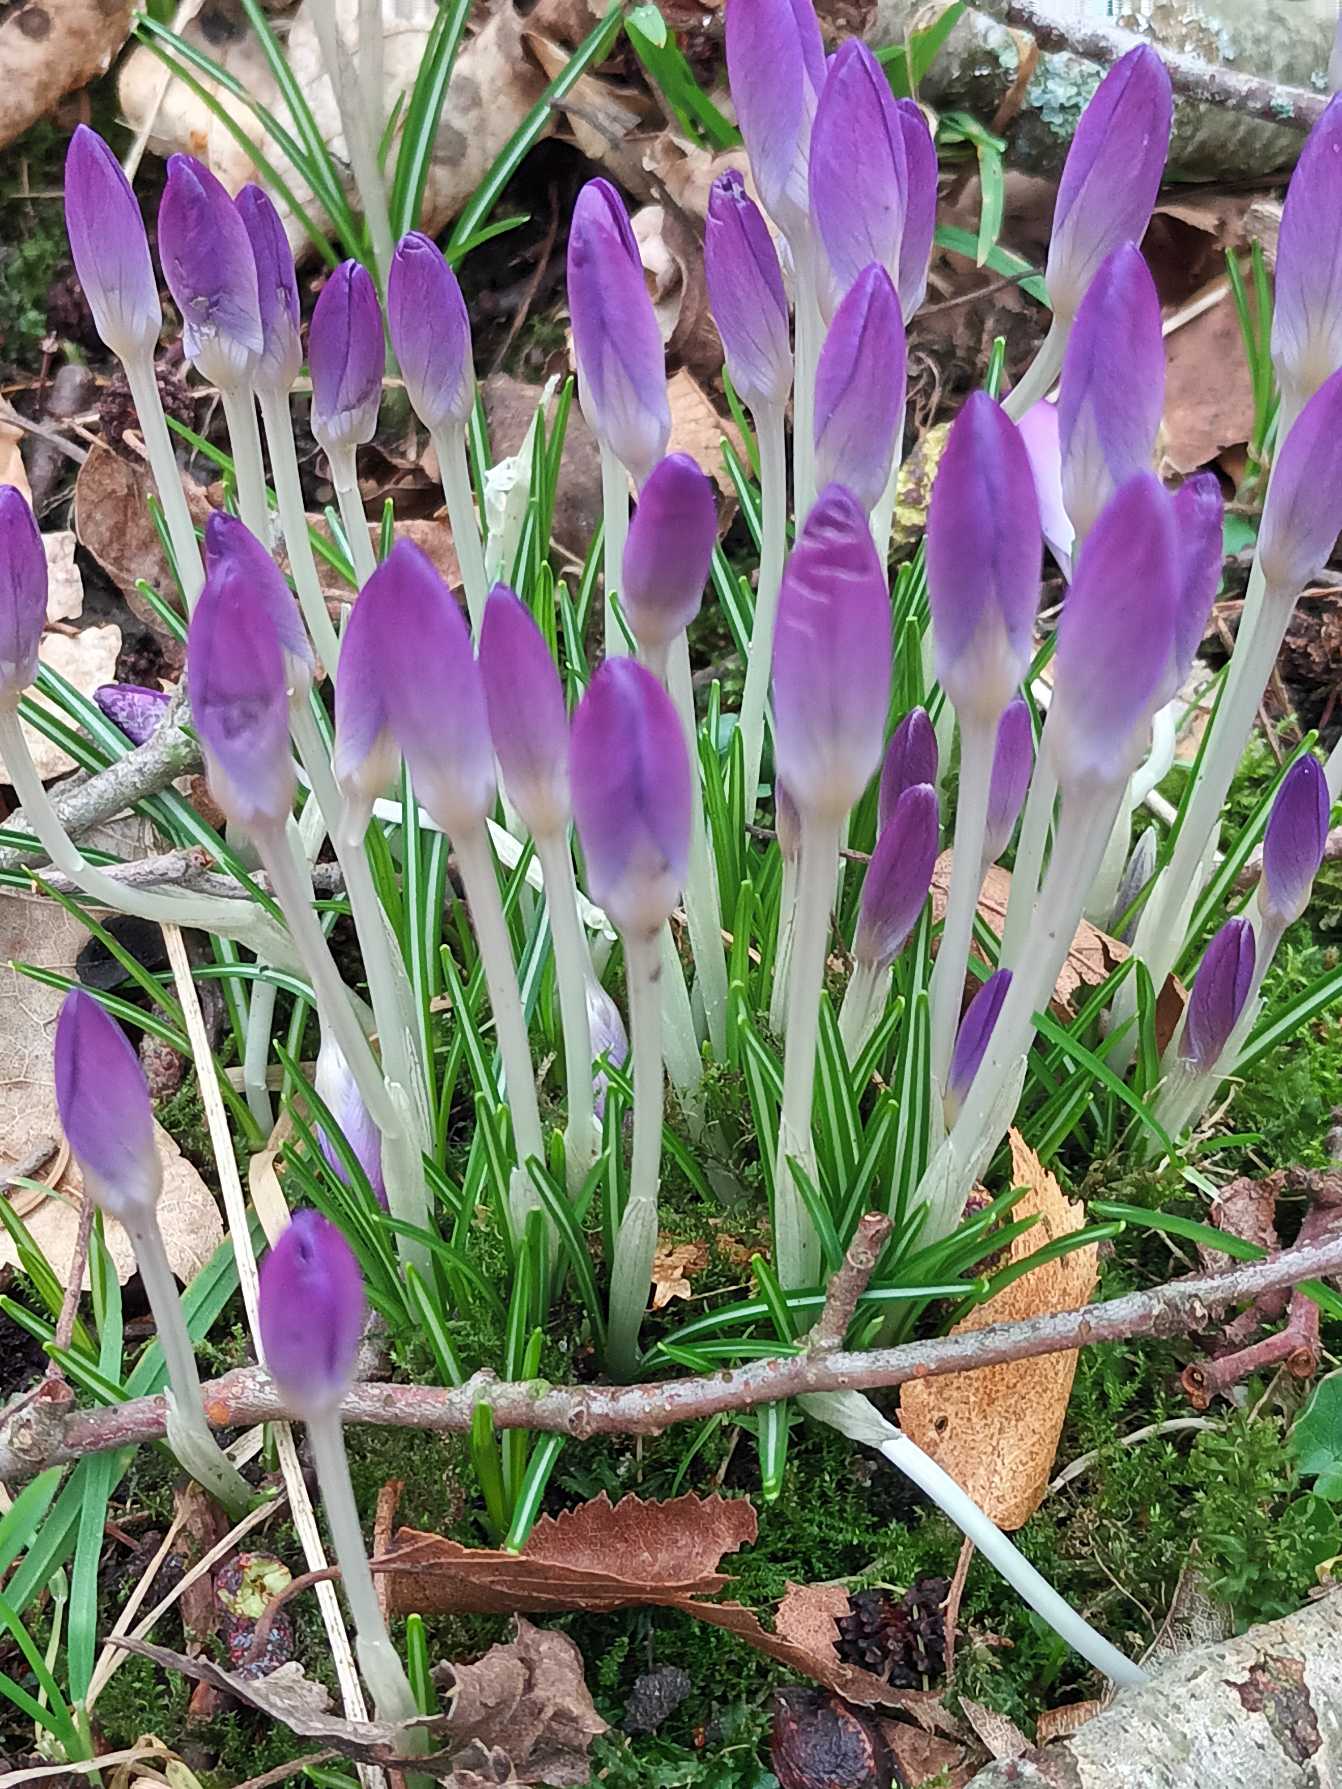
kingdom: Plantae
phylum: Tracheophyta
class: Liliopsida
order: Asparagales
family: Iridaceae
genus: Crocus
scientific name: Crocus tommasinianus
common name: Sne-krokus
